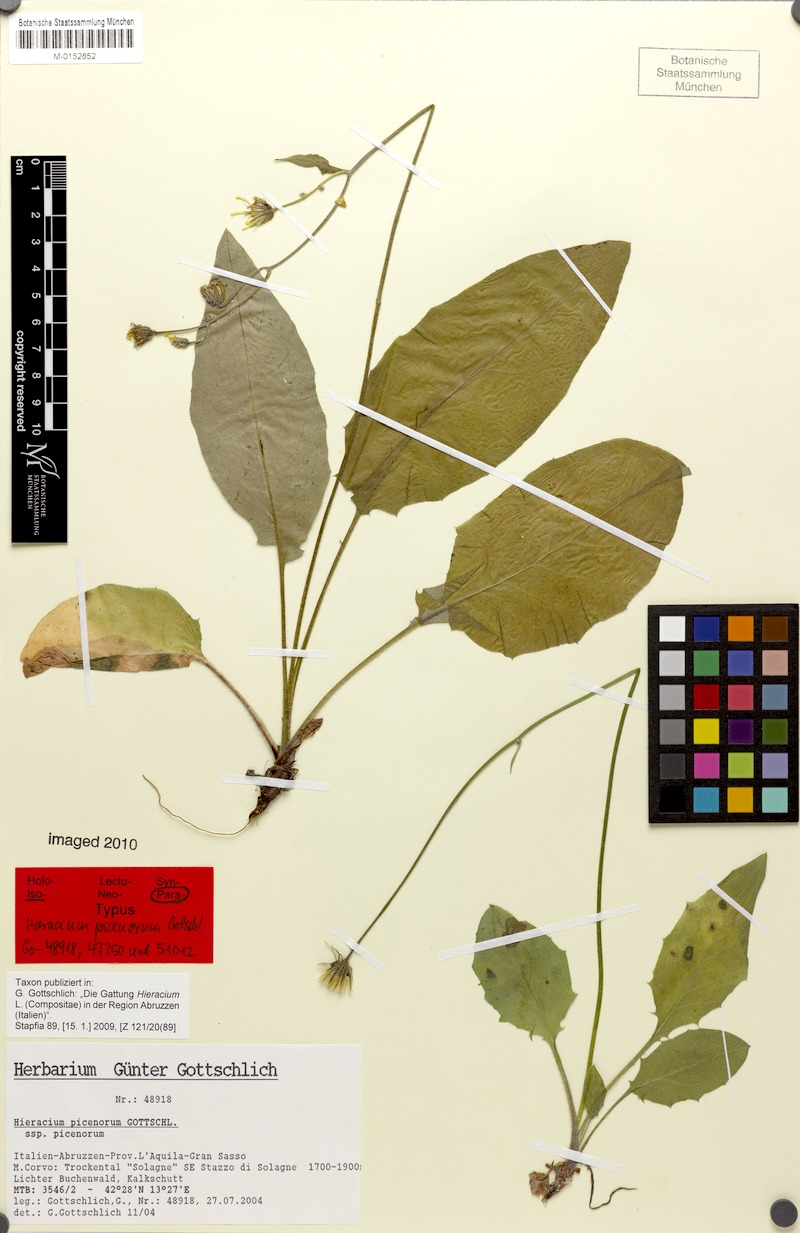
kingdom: Plantae
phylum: Tracheophyta
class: Magnoliopsida
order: Asterales
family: Asteraceae
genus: Hieracium
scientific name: Hieracium picenorum
